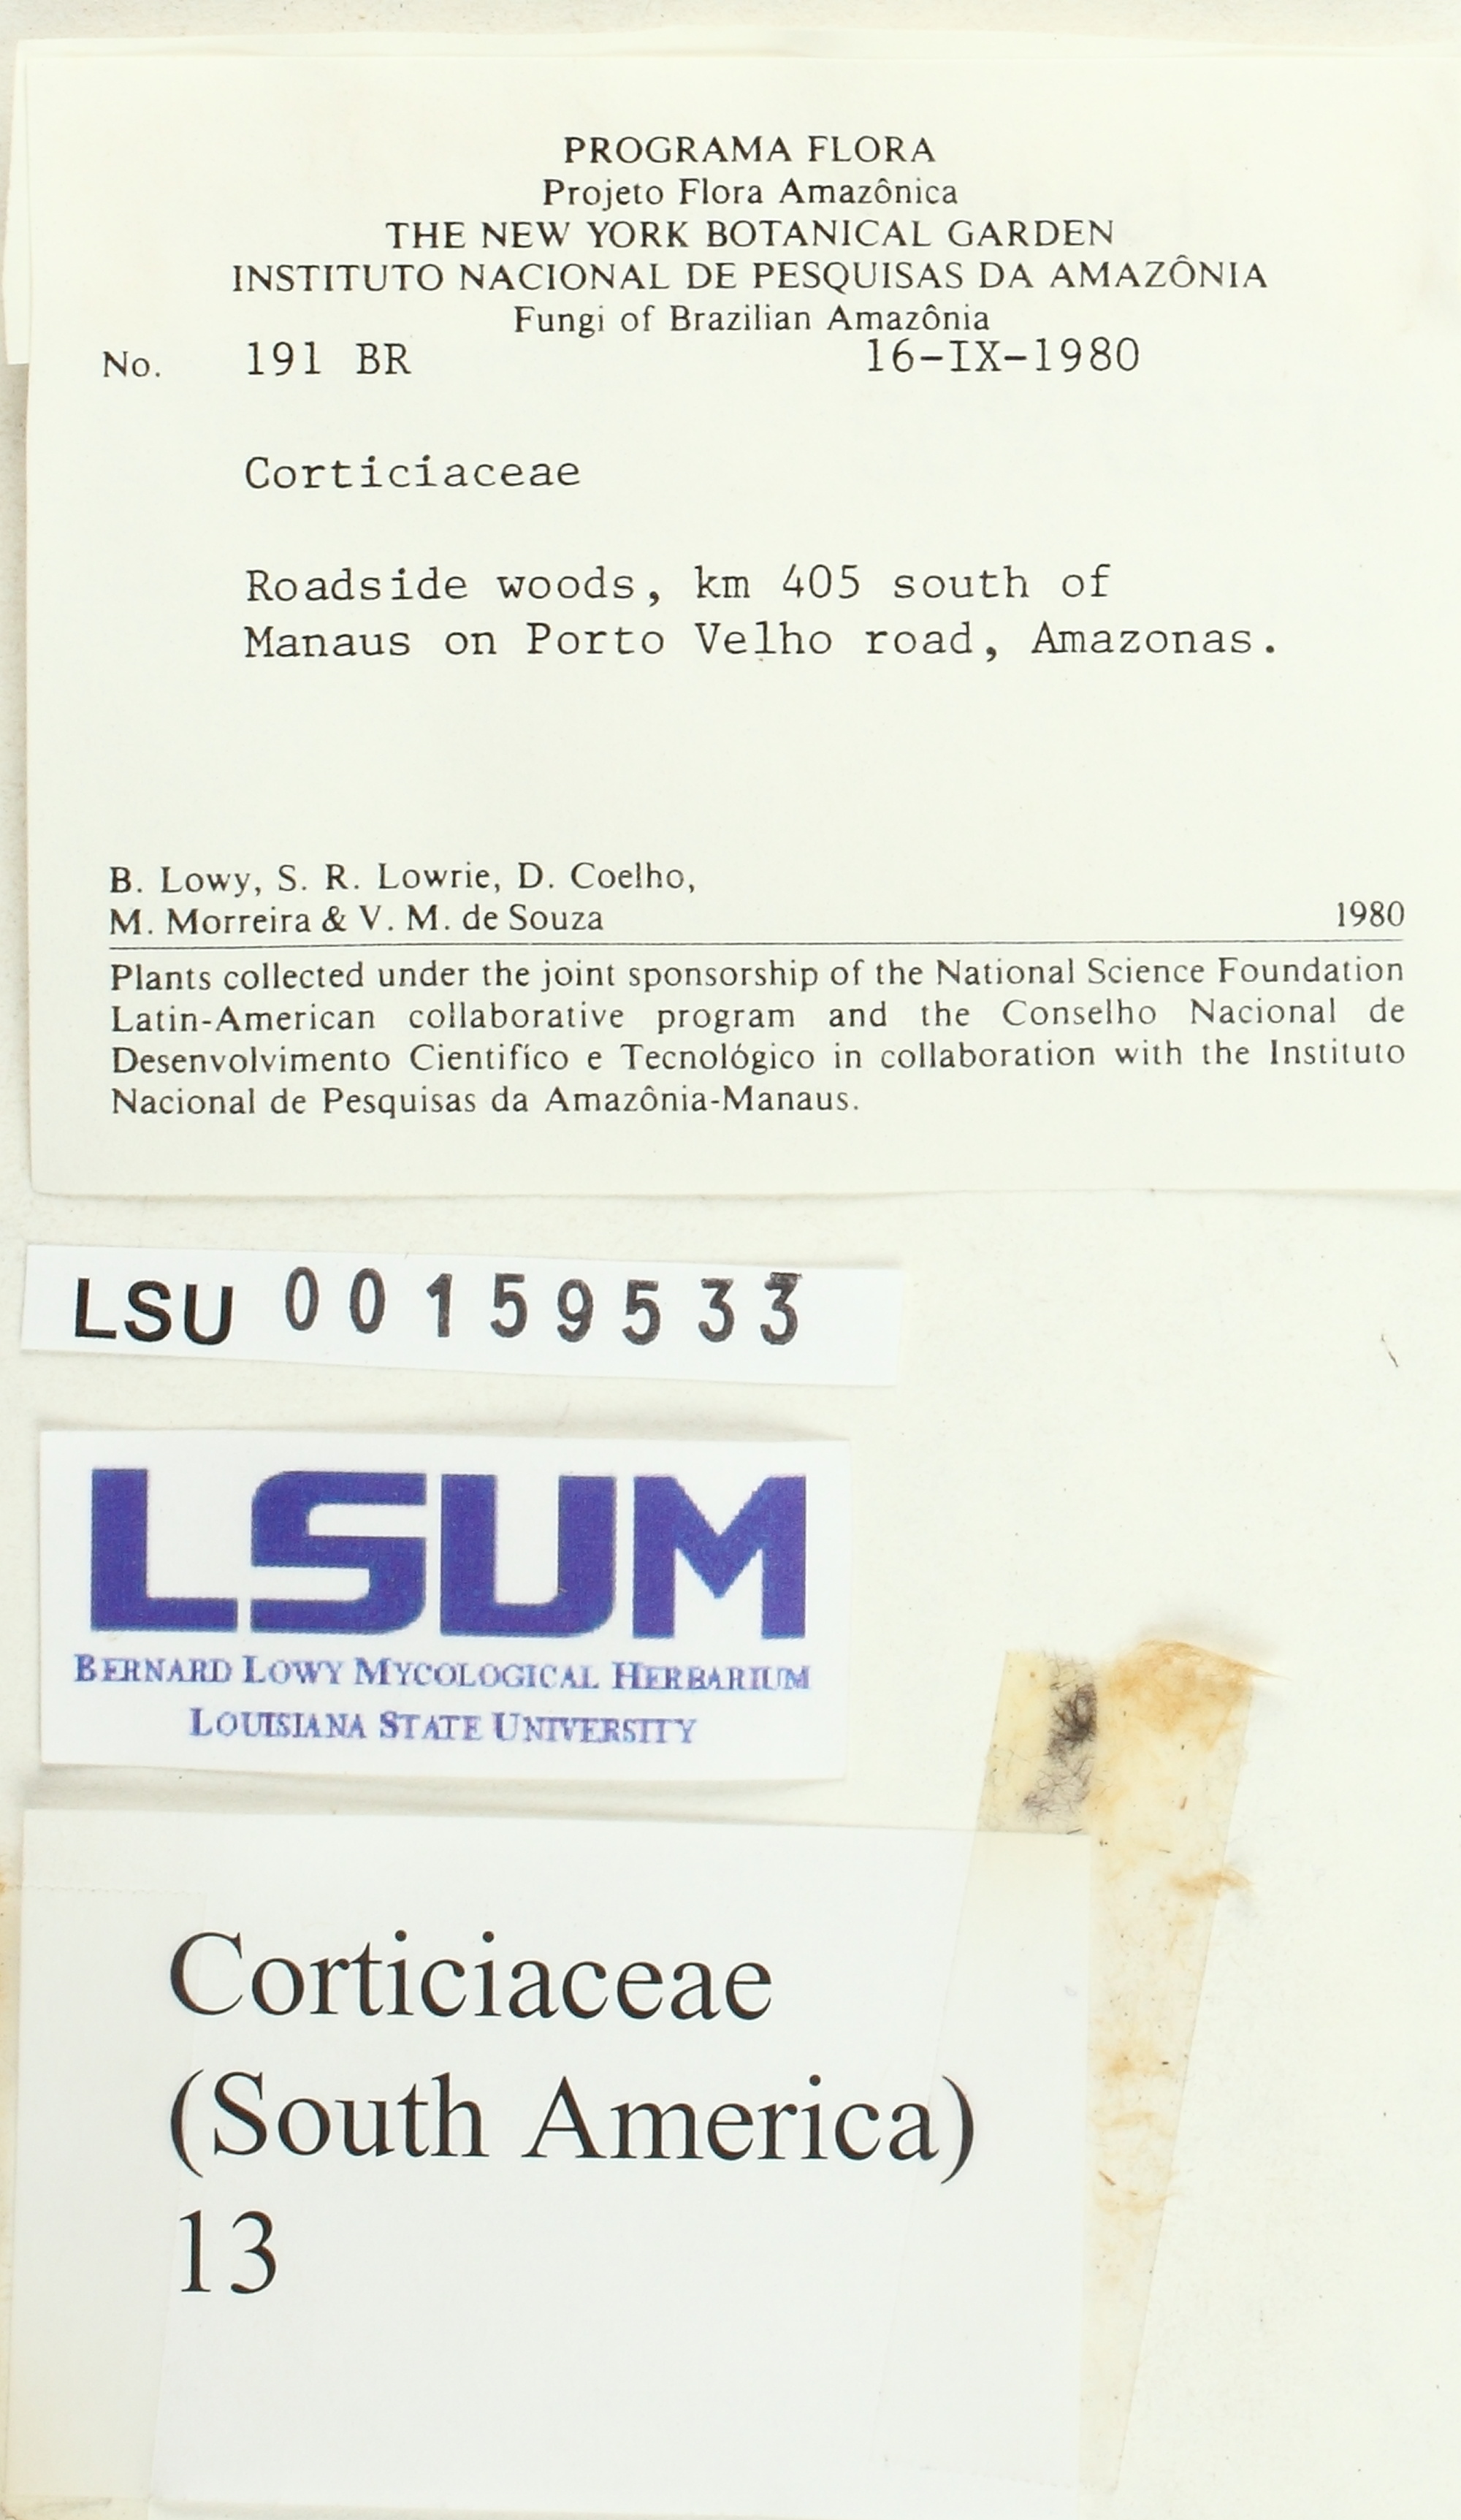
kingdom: Fungi
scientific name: Fungi
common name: Fungi
